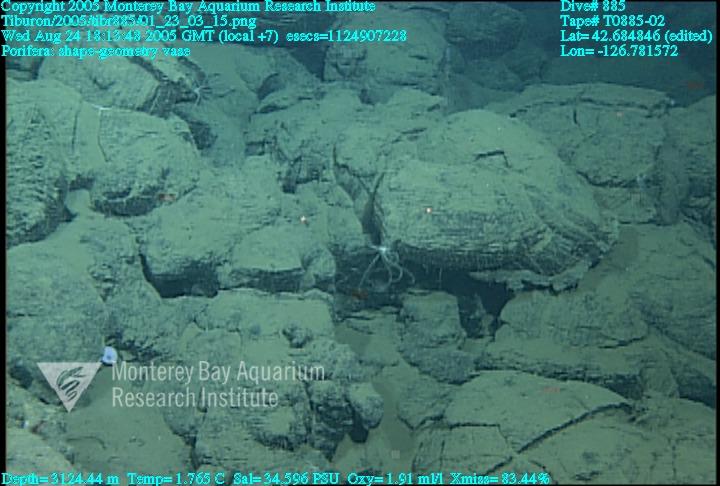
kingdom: Animalia
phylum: Porifera
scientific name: Porifera
